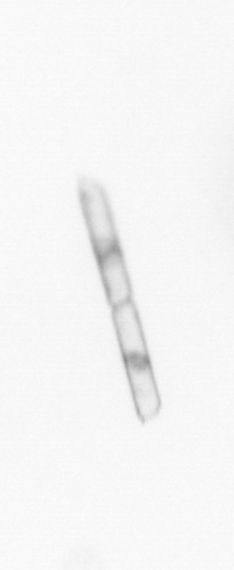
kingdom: Chromista
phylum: Ochrophyta
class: Bacillariophyceae
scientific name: Bacillariophyceae
